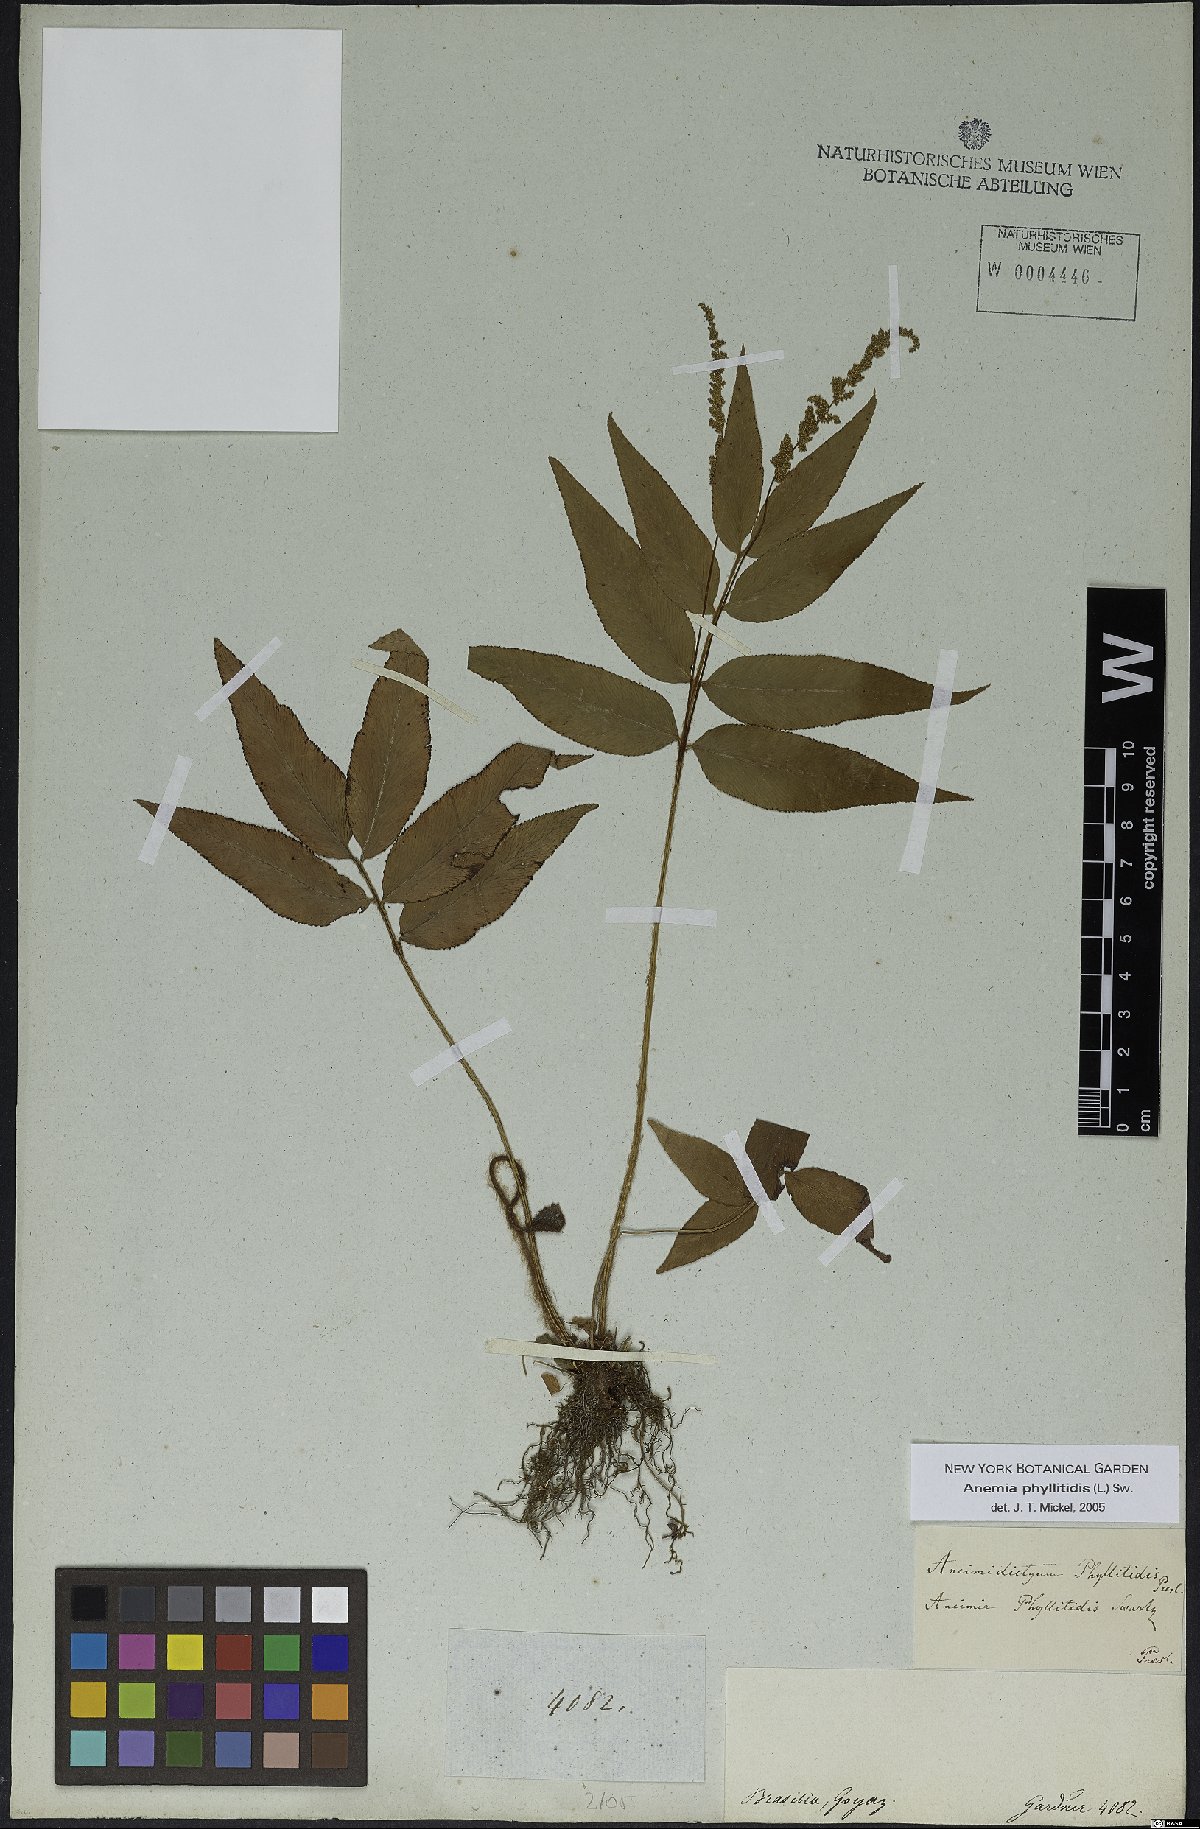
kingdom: Plantae
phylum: Tracheophyta
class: Polypodiopsida
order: Schizaeales
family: Anemiaceae
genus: Anemia
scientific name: Anemia phyllitidis
